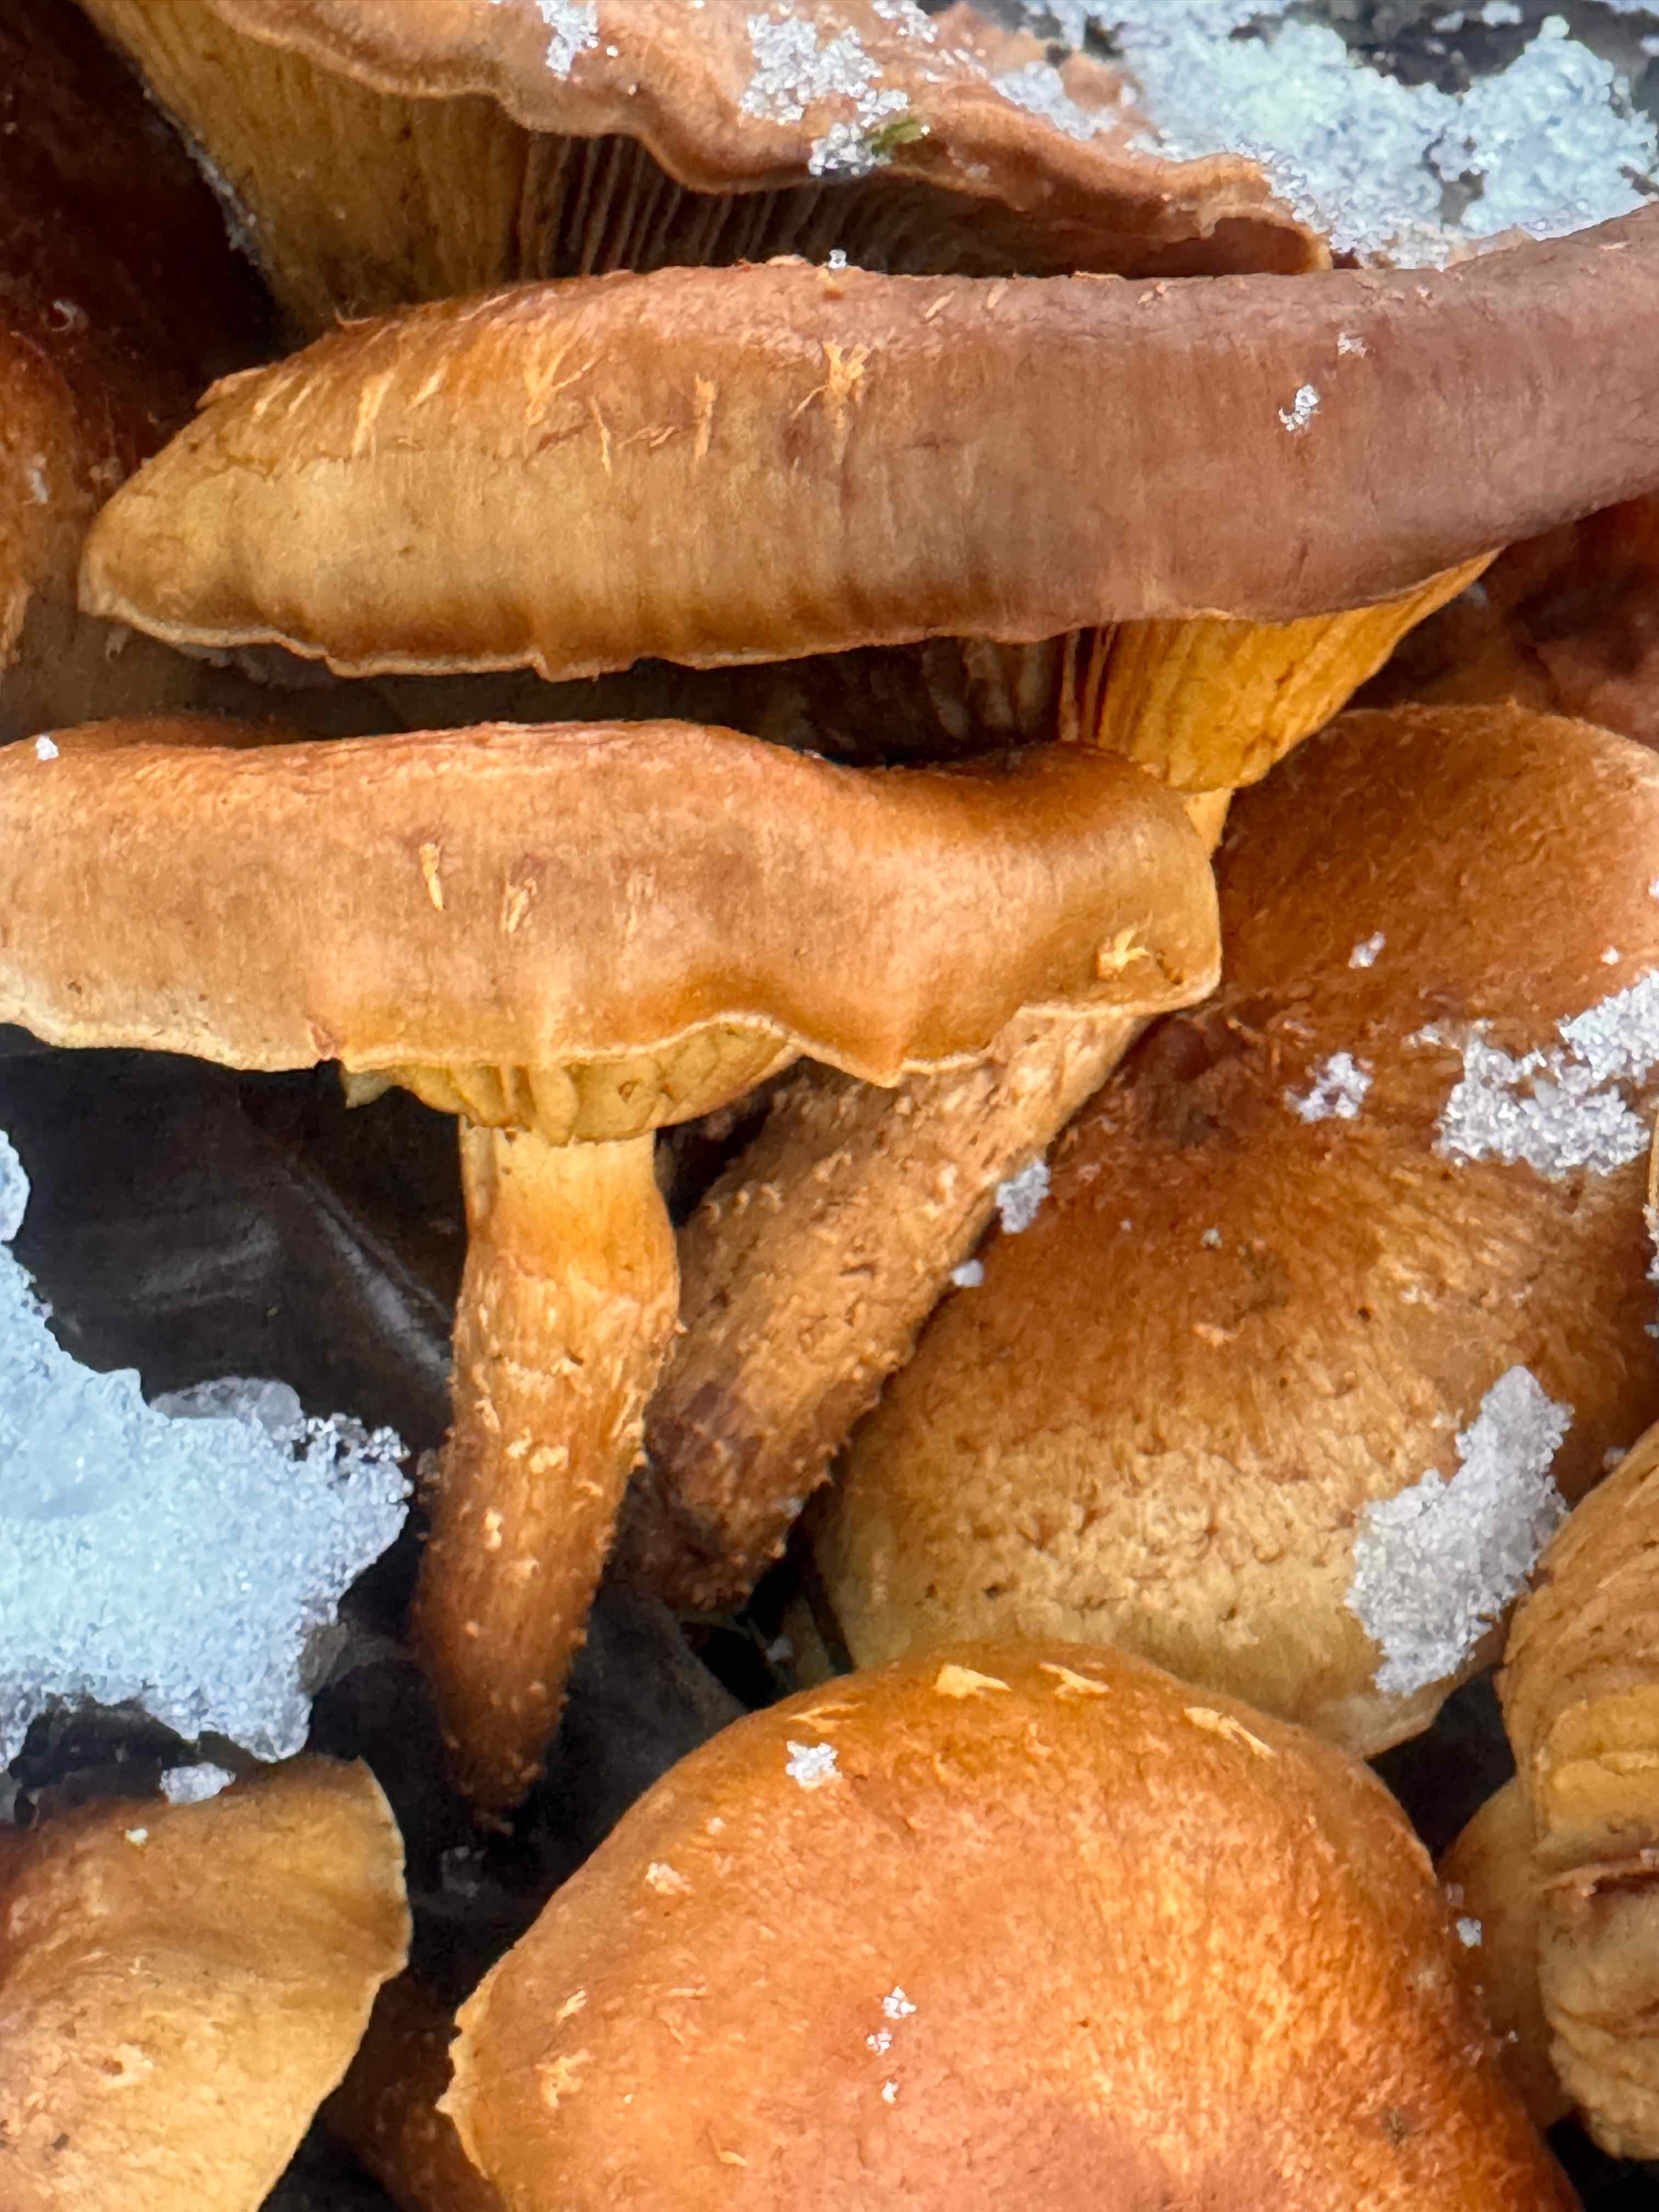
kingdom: Fungi
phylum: Basidiomycota
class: Agaricomycetes
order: Agaricales
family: Hymenogastraceae
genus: Gymnopilus
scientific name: Gymnopilus spectabilis
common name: fibret flammehat
